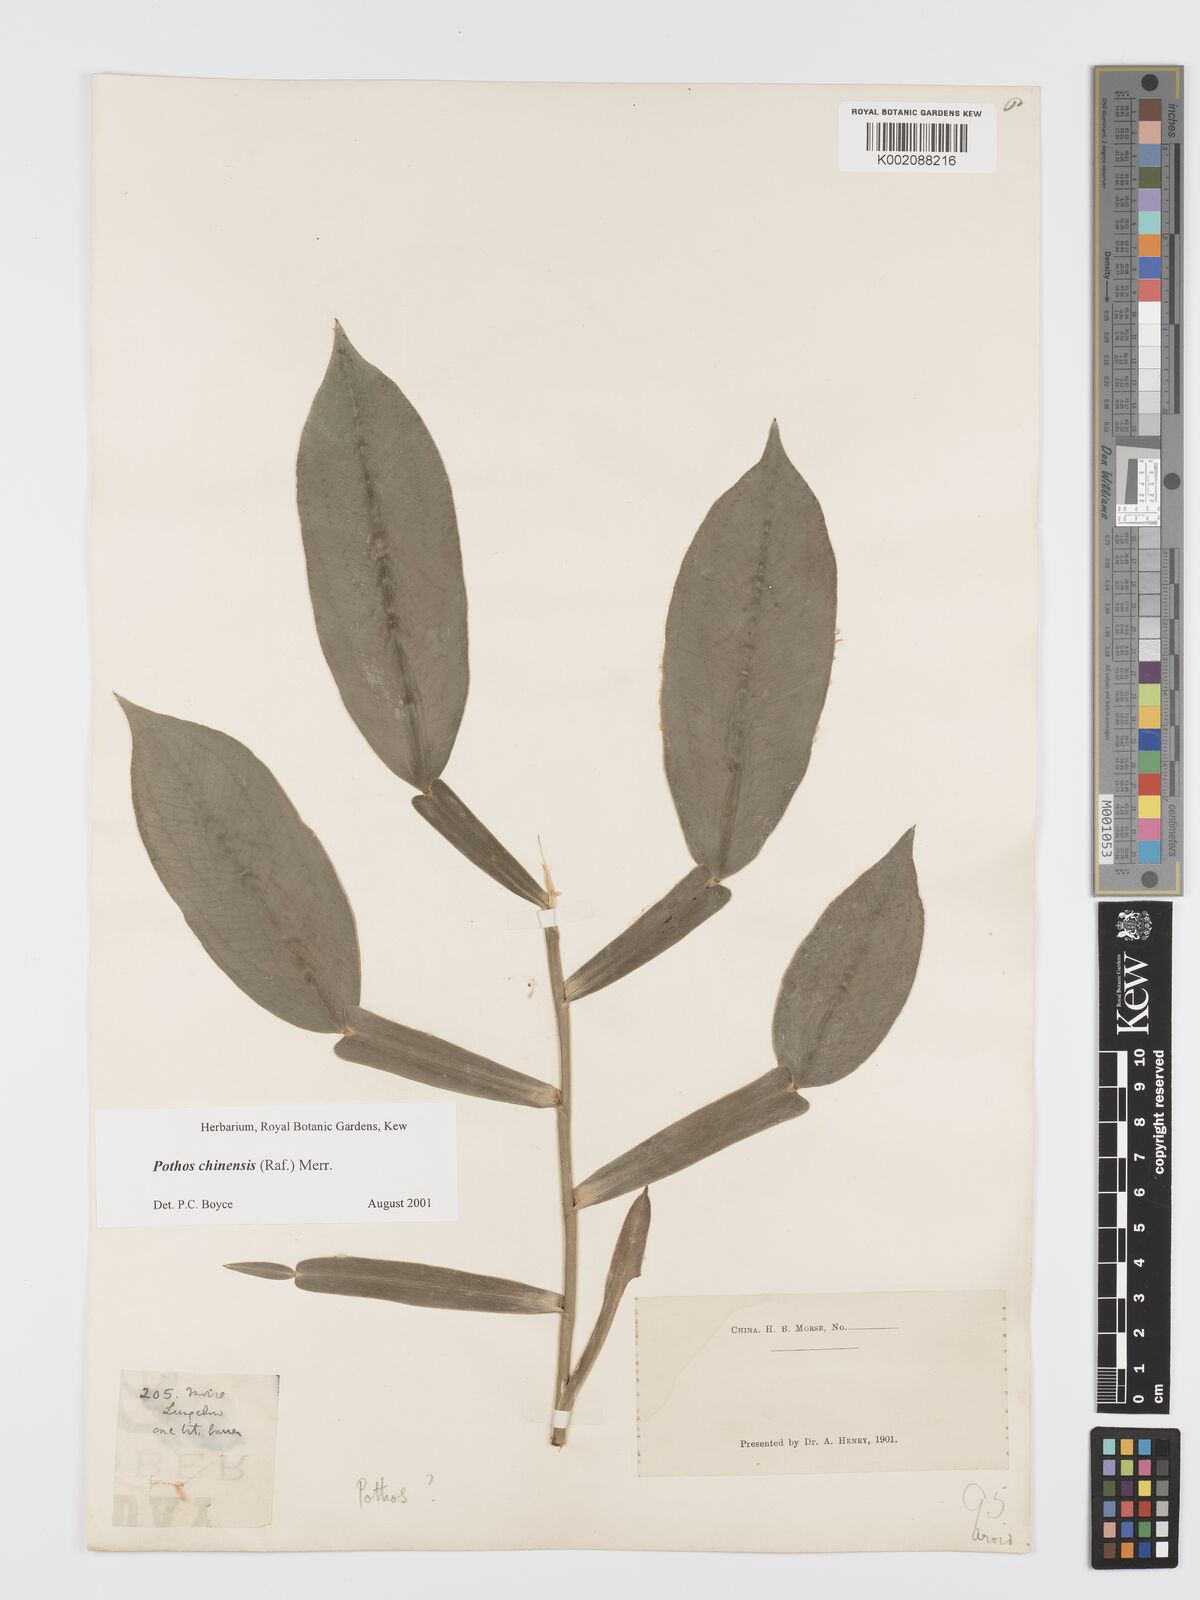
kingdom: Plantae
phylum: Tracheophyta
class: Liliopsida
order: Alismatales
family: Araceae
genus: Pothos
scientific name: Pothos chinensis
